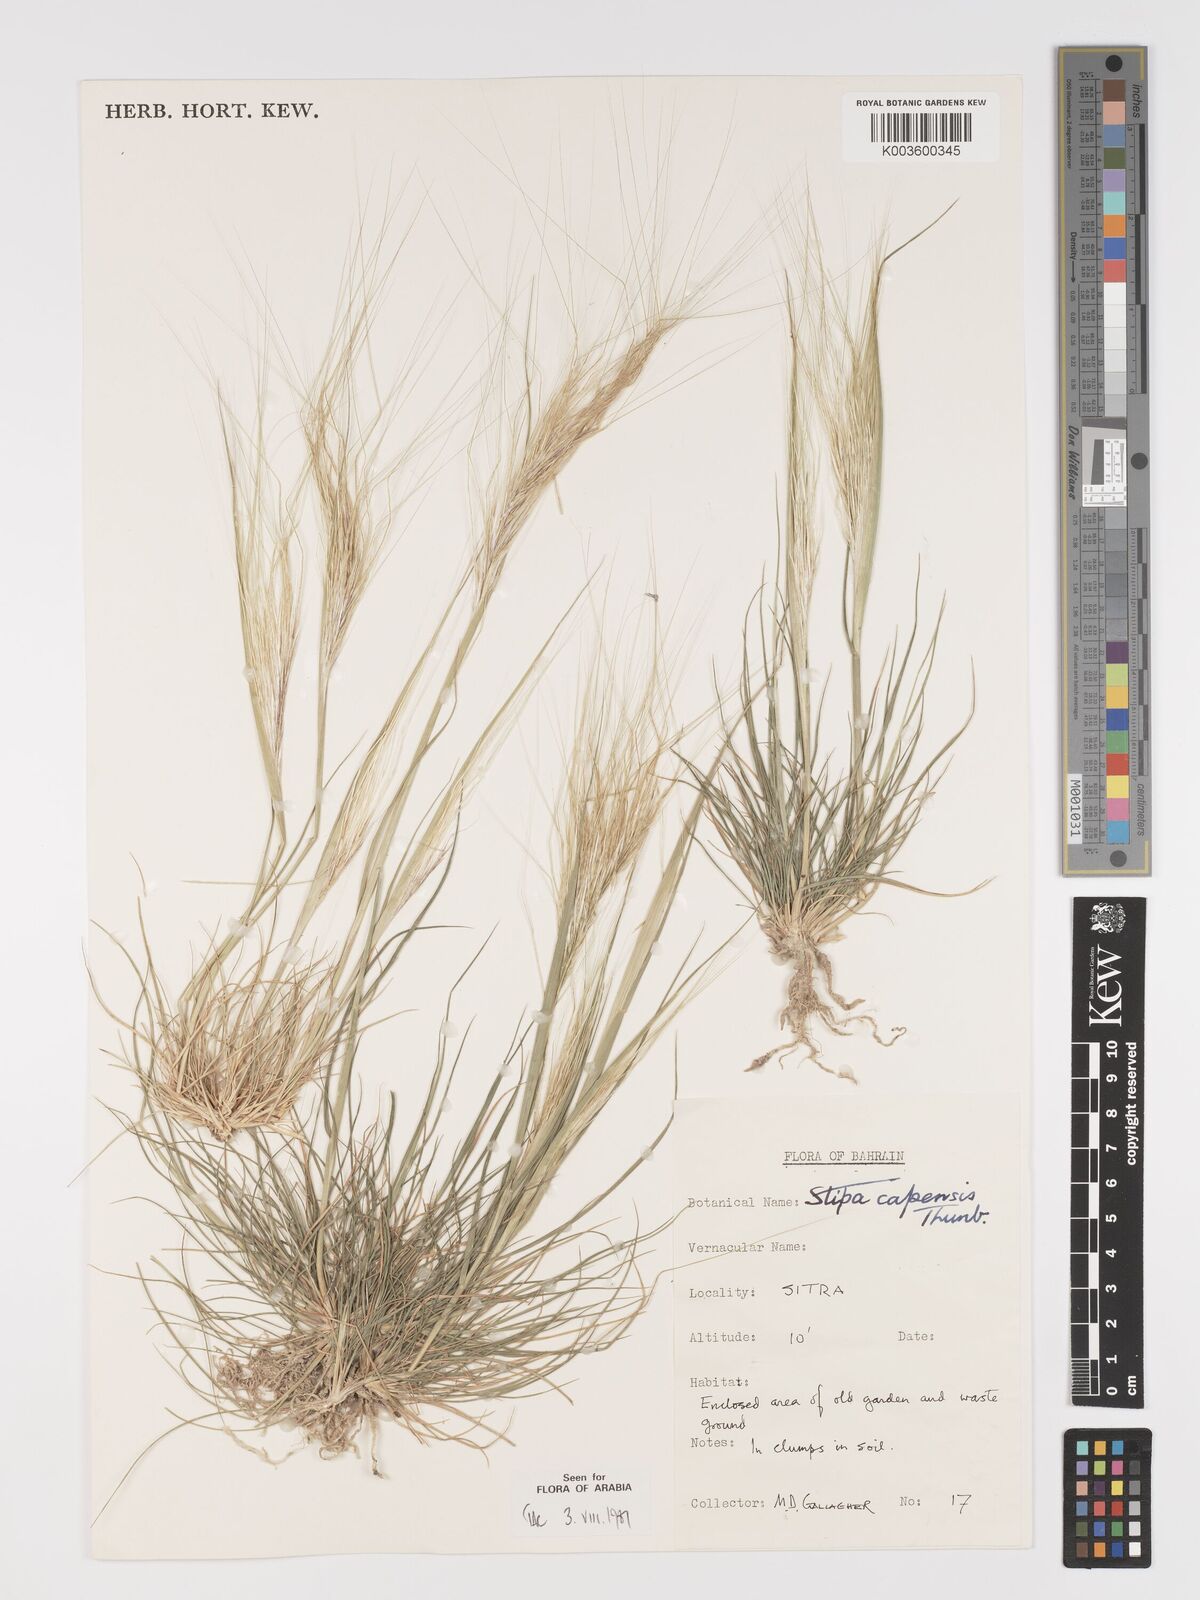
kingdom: Plantae
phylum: Tracheophyta
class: Liliopsida
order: Poales
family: Poaceae
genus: Stipellula
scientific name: Stipellula capensis
